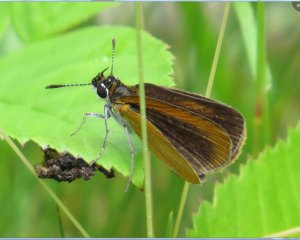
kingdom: Animalia
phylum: Arthropoda
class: Insecta
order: Lepidoptera
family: Hesperiidae
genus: Ancyloxypha
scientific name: Ancyloxypha numitor
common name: Least Skipper
